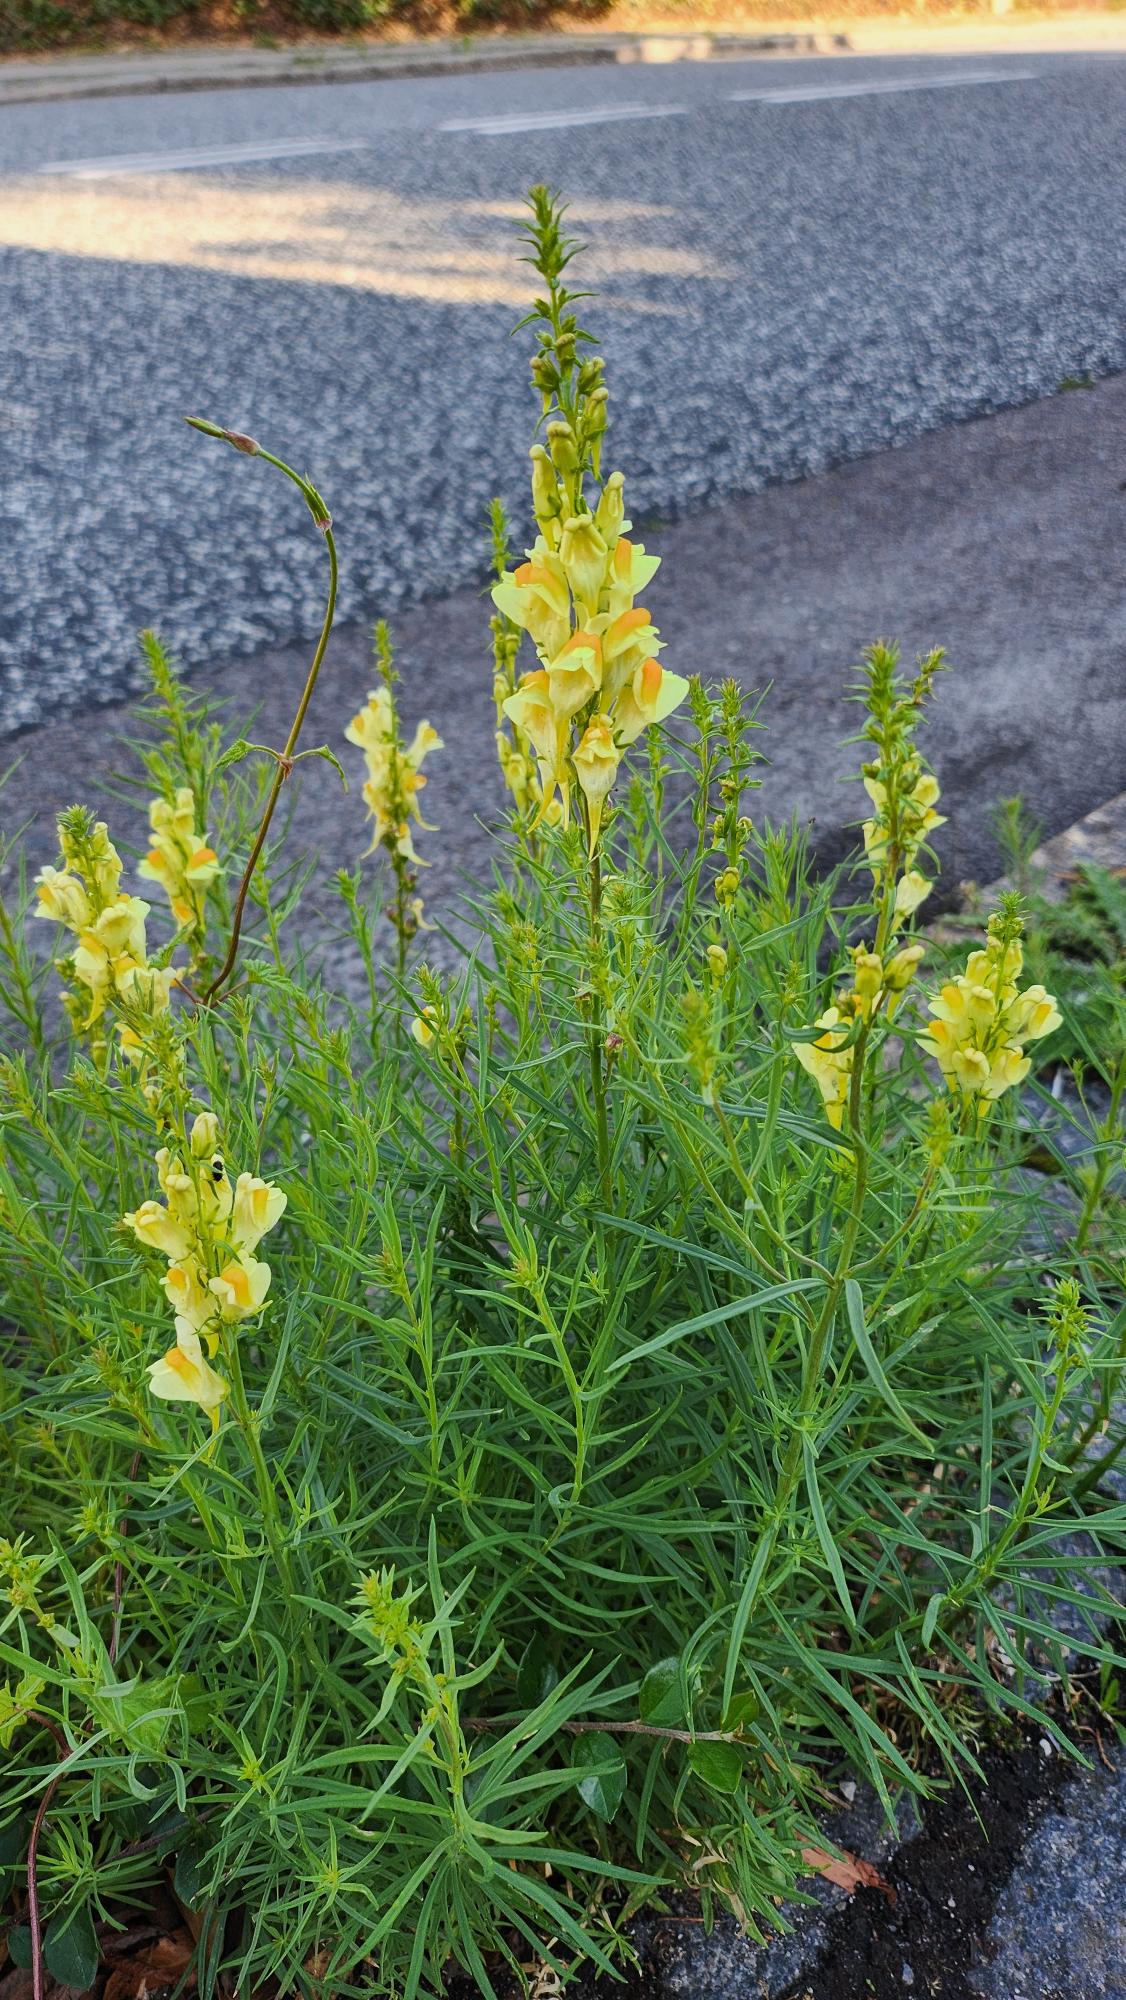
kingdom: Plantae
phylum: Tracheophyta
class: Magnoliopsida
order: Lamiales
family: Plantaginaceae
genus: Linaria
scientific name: Linaria vulgaris
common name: Almindelig torskemund
